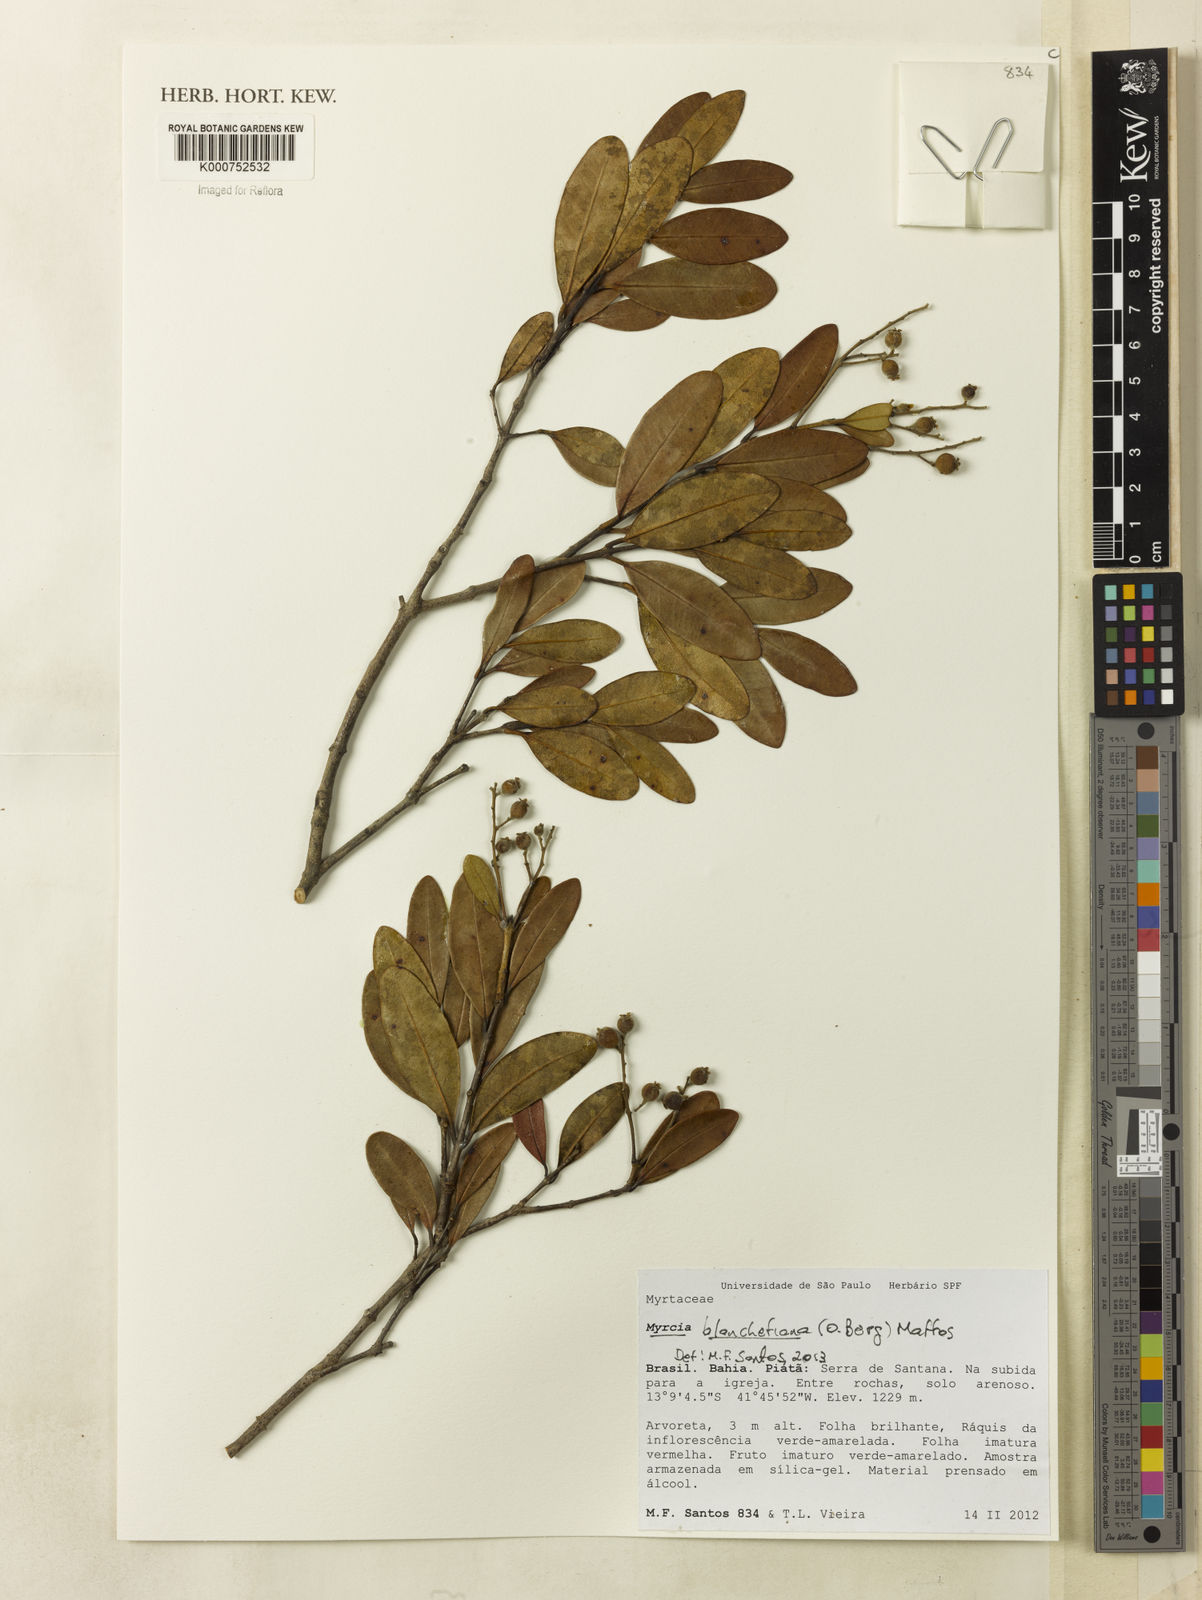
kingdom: Plantae
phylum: Tracheophyta
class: Magnoliopsida
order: Myrtales
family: Myrtaceae
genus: Myrcia
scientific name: Myrcia blanchetiana
